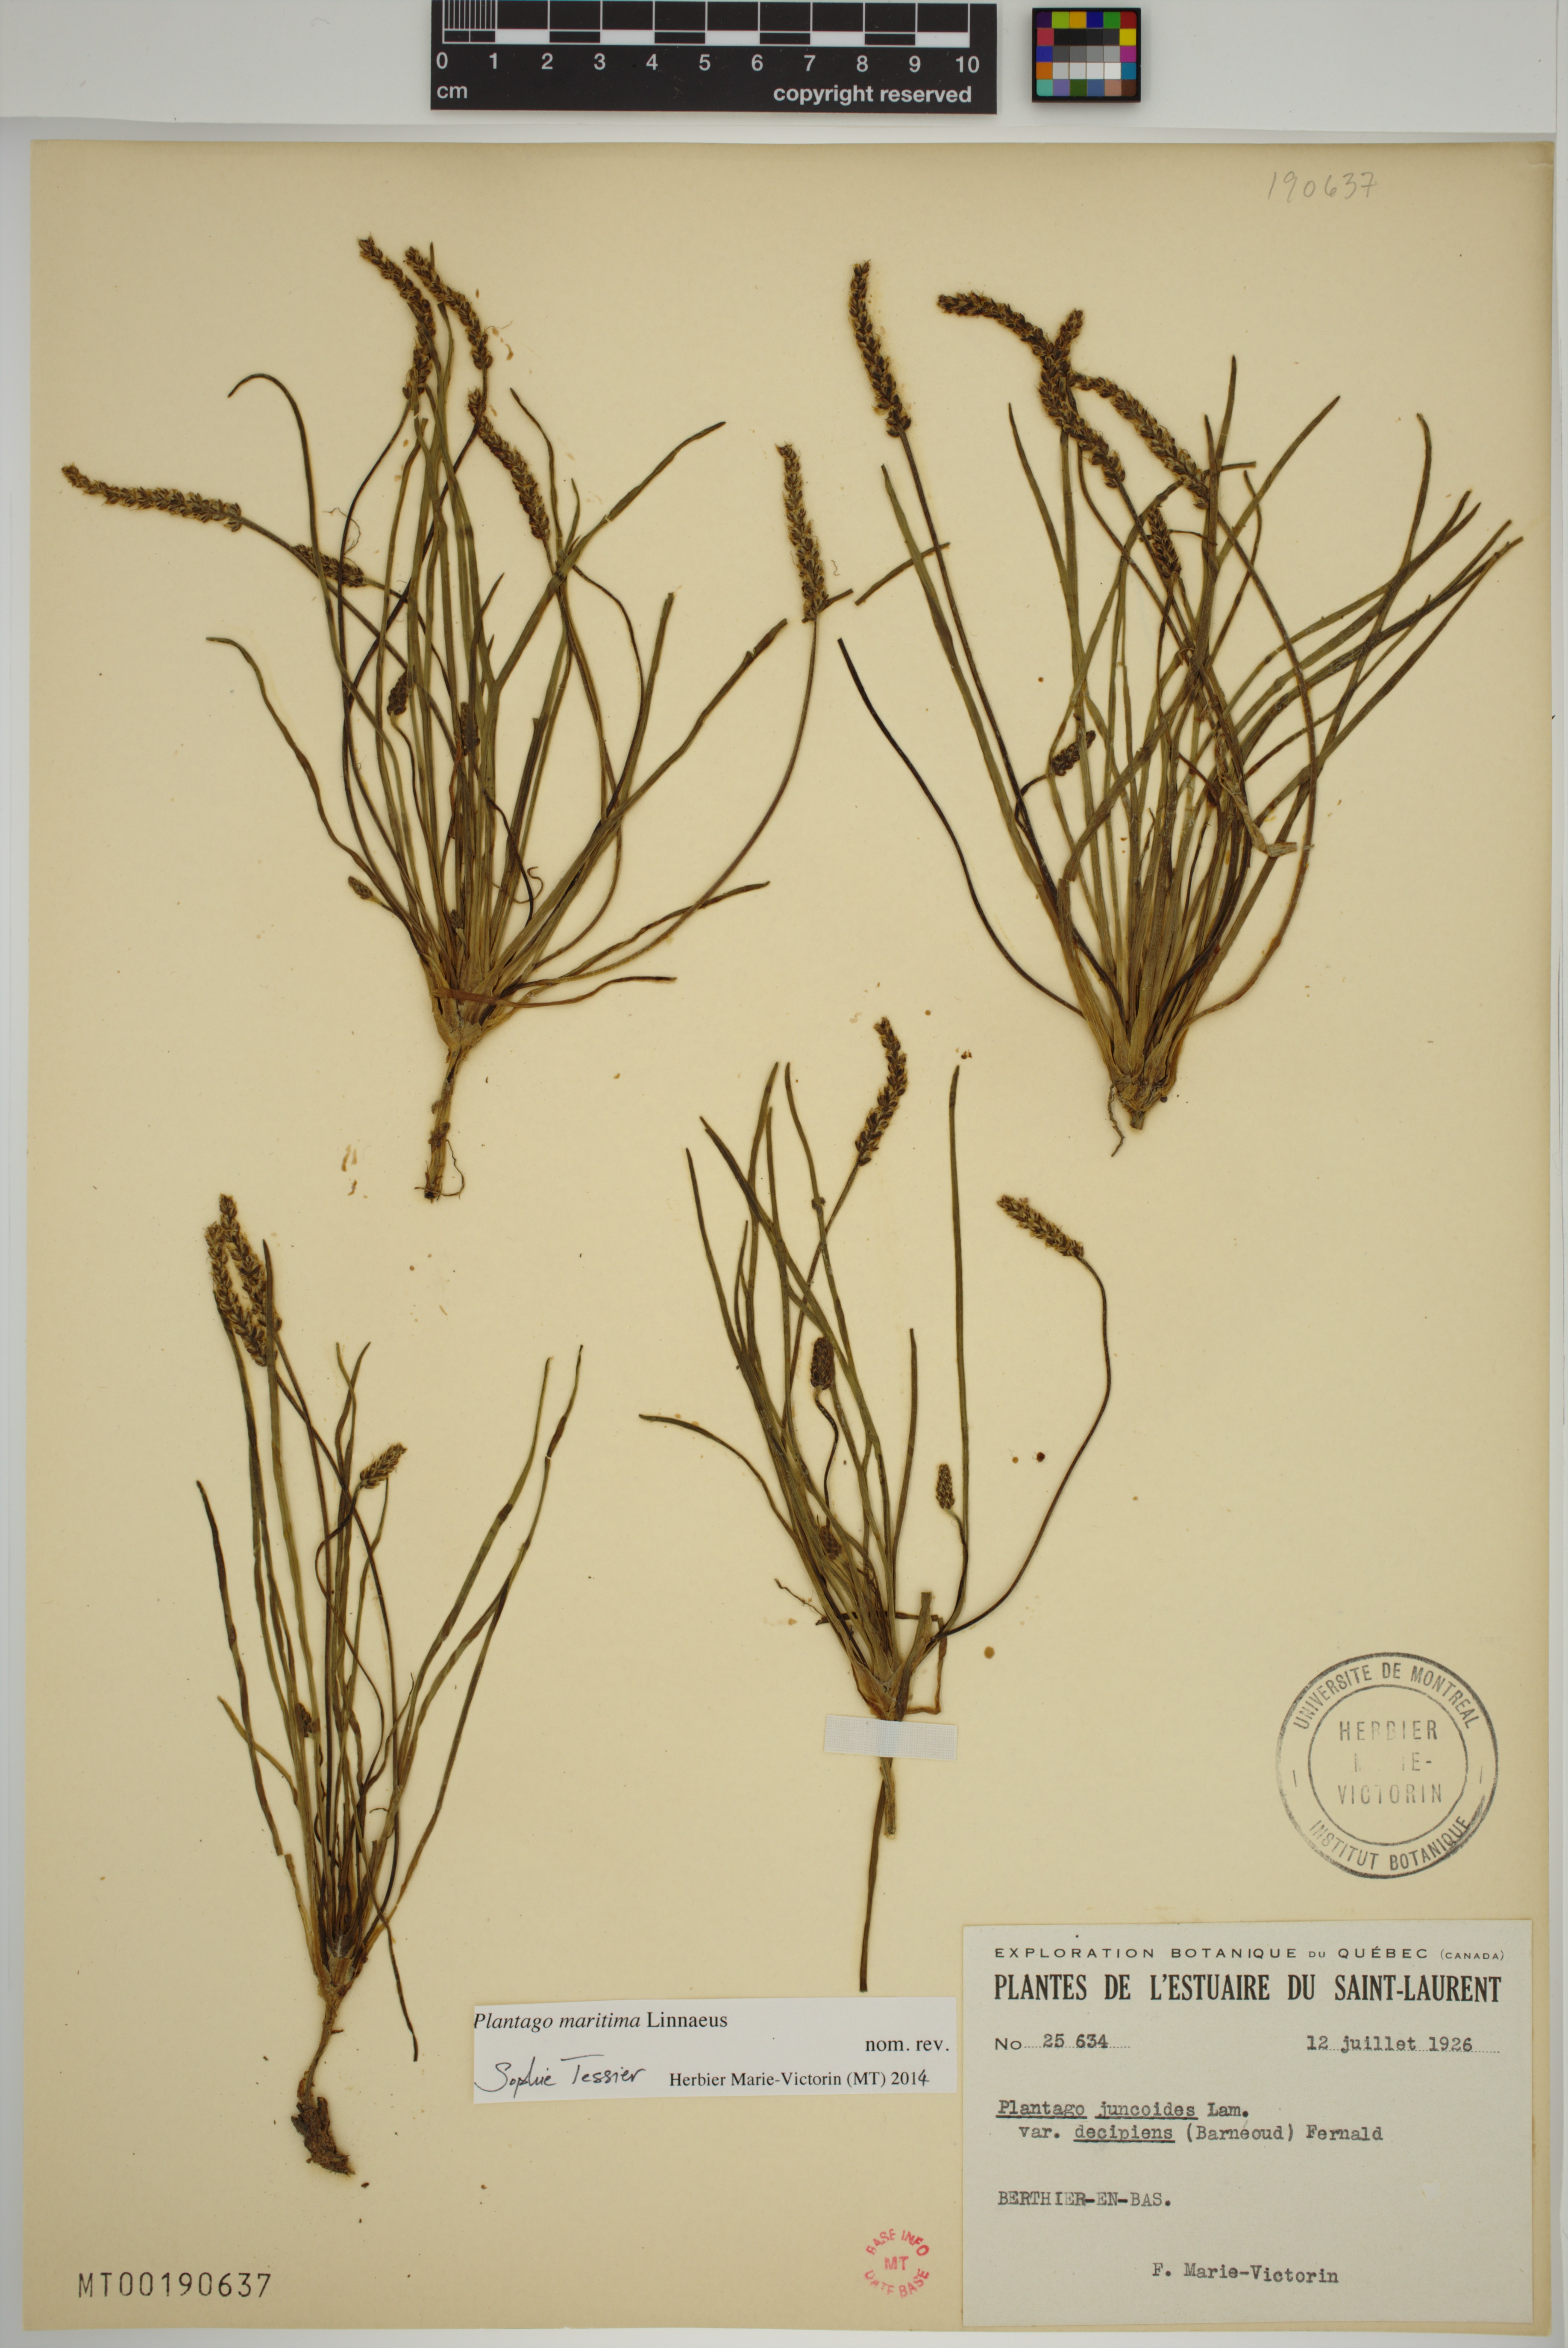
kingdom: Plantae
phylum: Tracheophyta
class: Magnoliopsida
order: Lamiales
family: Plantaginaceae
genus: Plantago
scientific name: Plantago maritima
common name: Sea plantain
